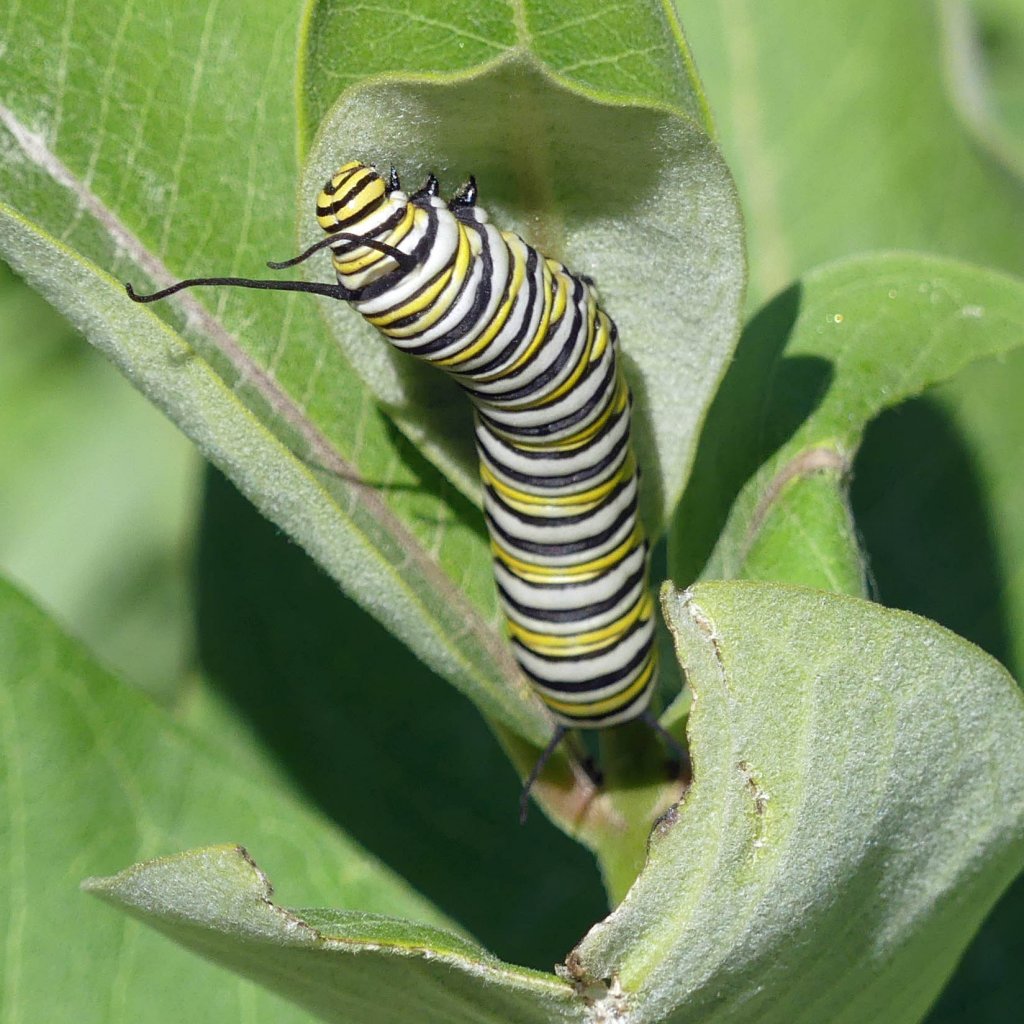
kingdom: Animalia
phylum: Arthropoda
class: Insecta
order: Lepidoptera
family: Nymphalidae
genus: Danaus
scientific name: Danaus plexippus
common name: Monarch
